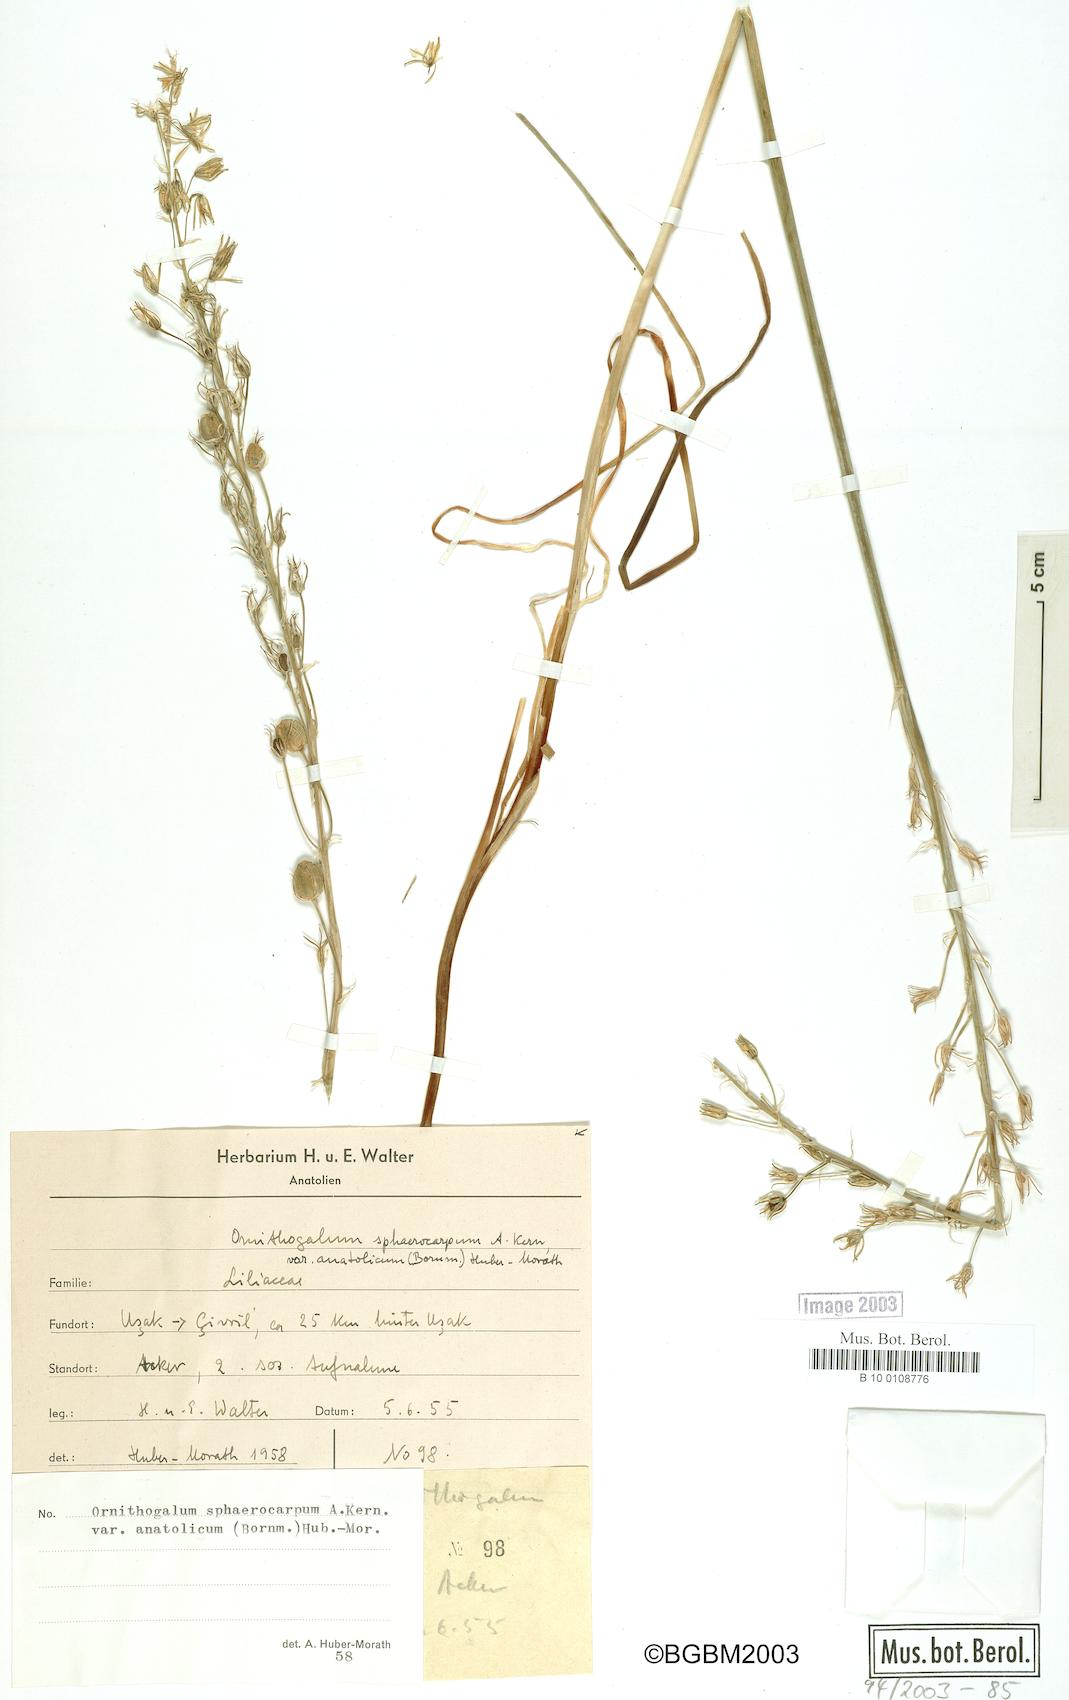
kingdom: Plantae
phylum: Tracheophyta
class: Liliopsida
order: Asparagales
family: Asparagaceae
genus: Ornithogalum
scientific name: Ornithogalum sphaerocarpum
